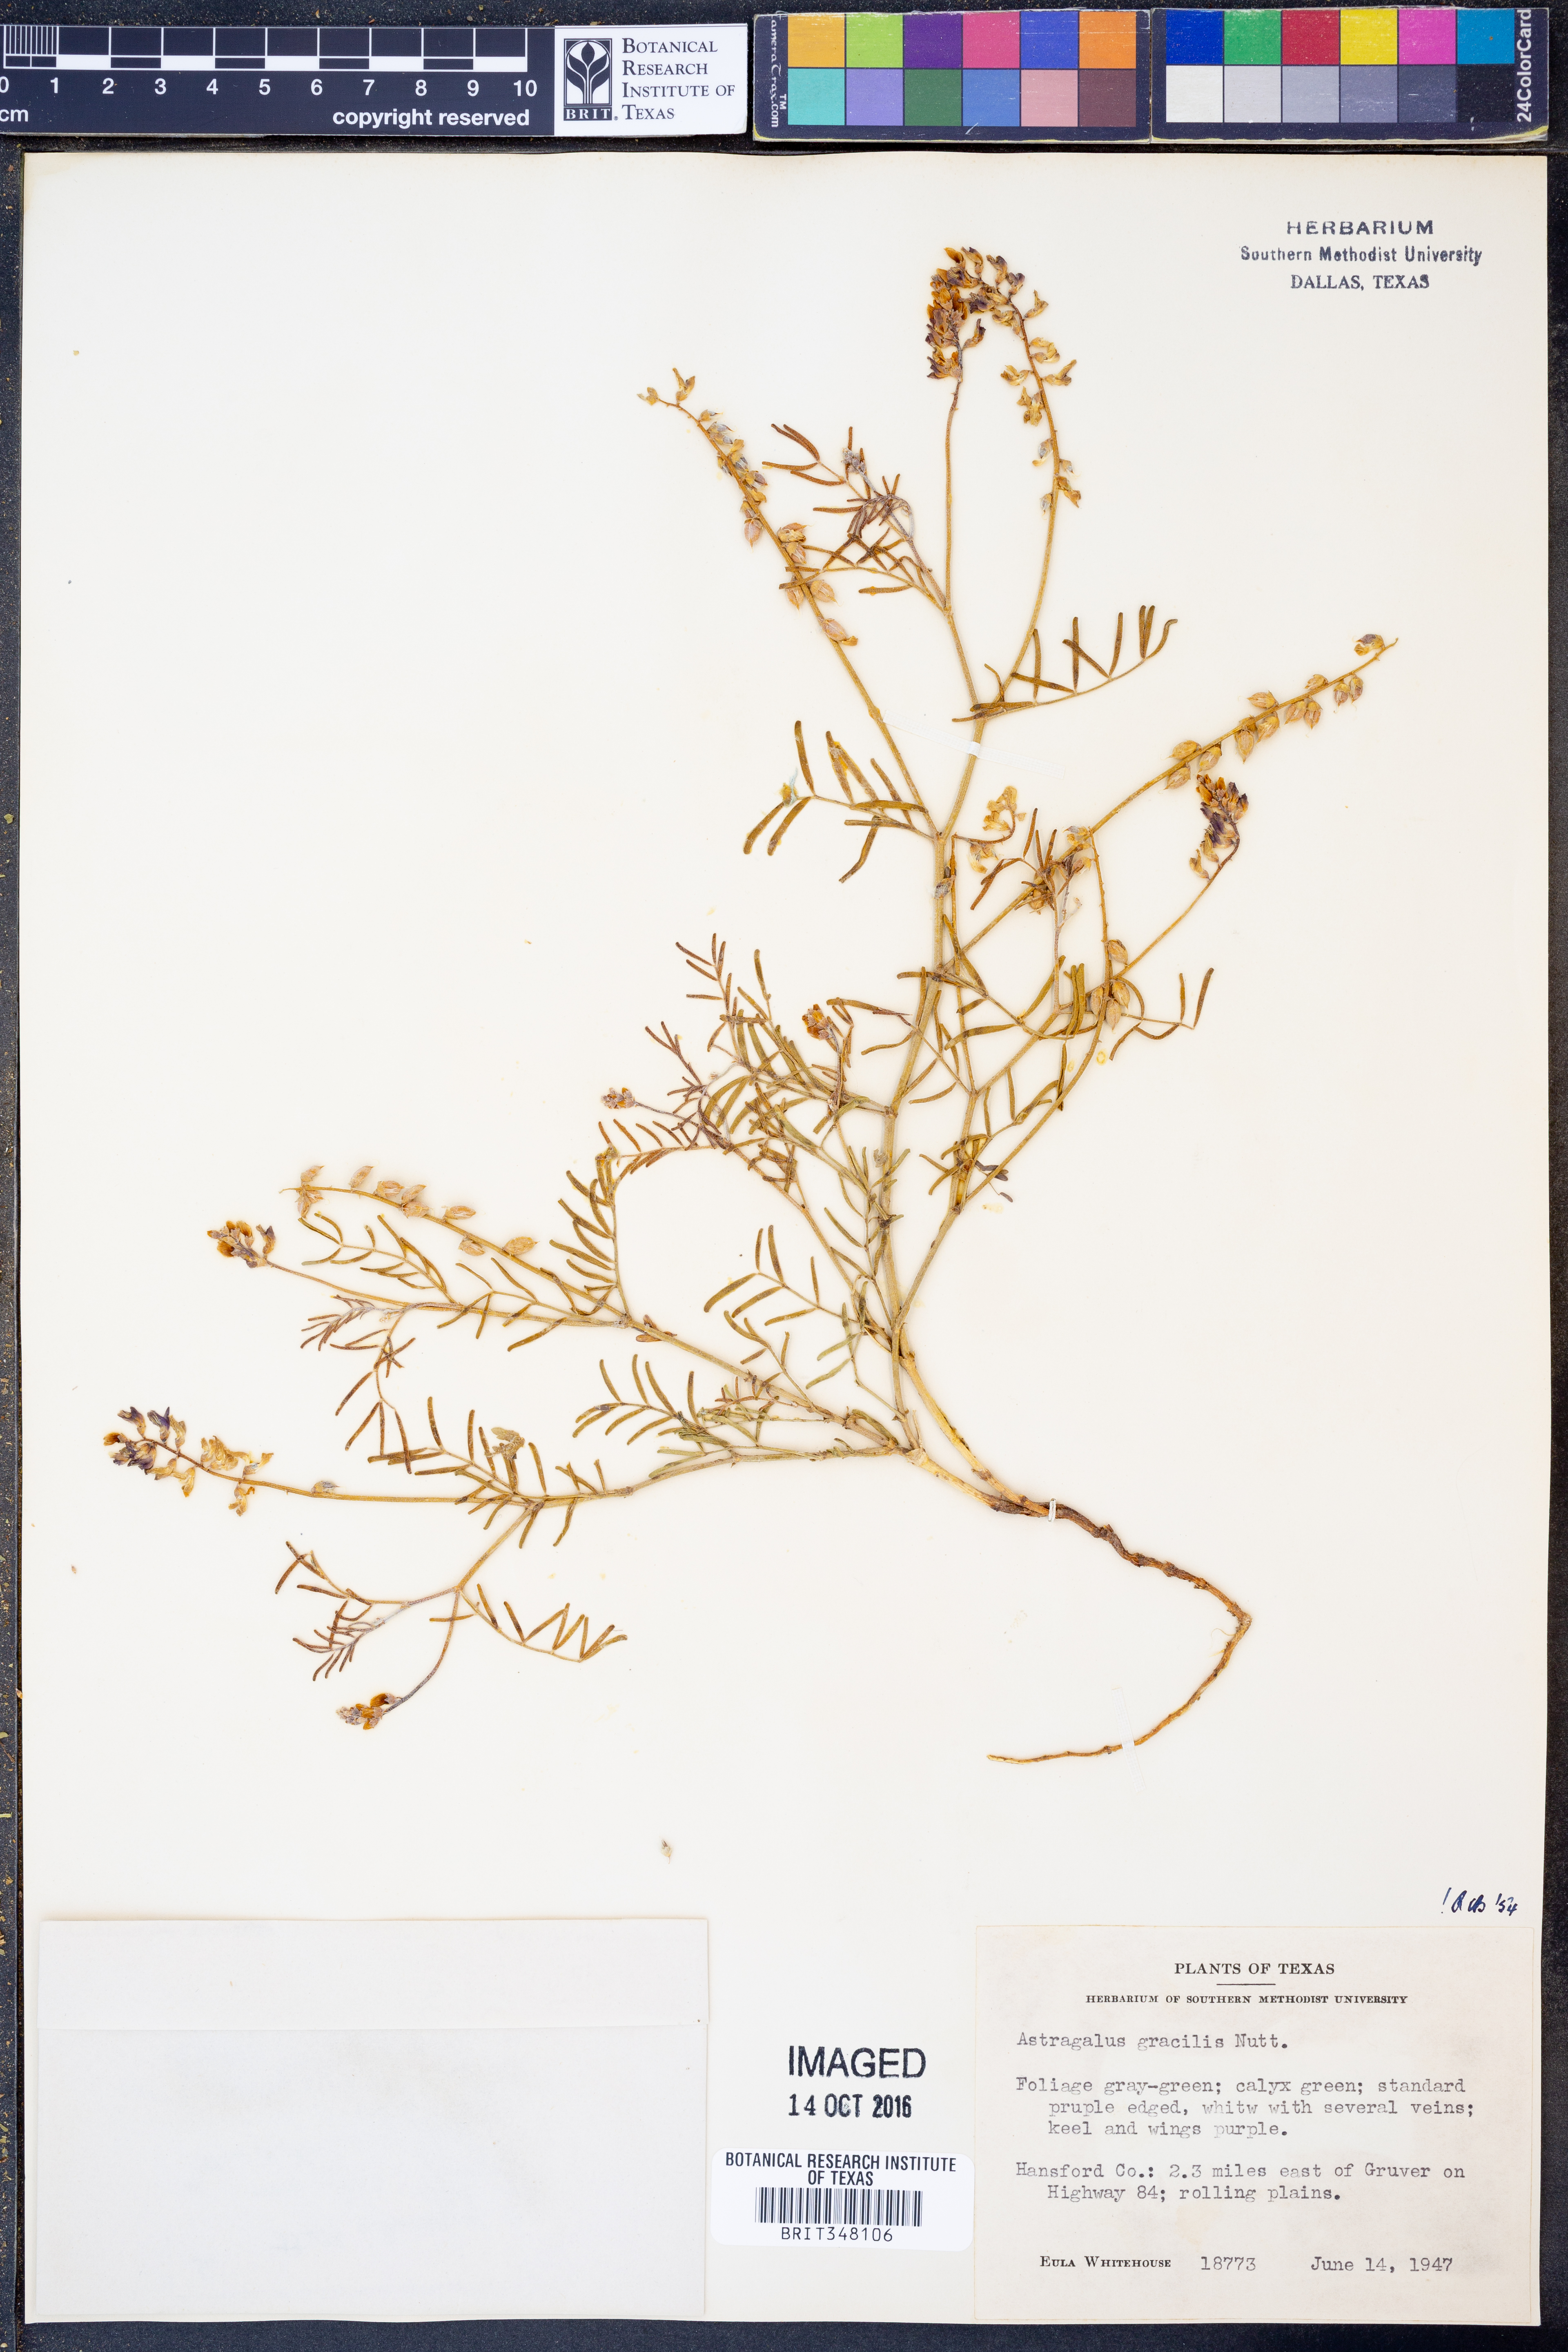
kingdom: Plantae
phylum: Tracheophyta
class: Magnoliopsida
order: Fabales
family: Fabaceae
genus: Astragalus
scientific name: Astragalus gracilis
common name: Slender milk-vetch
